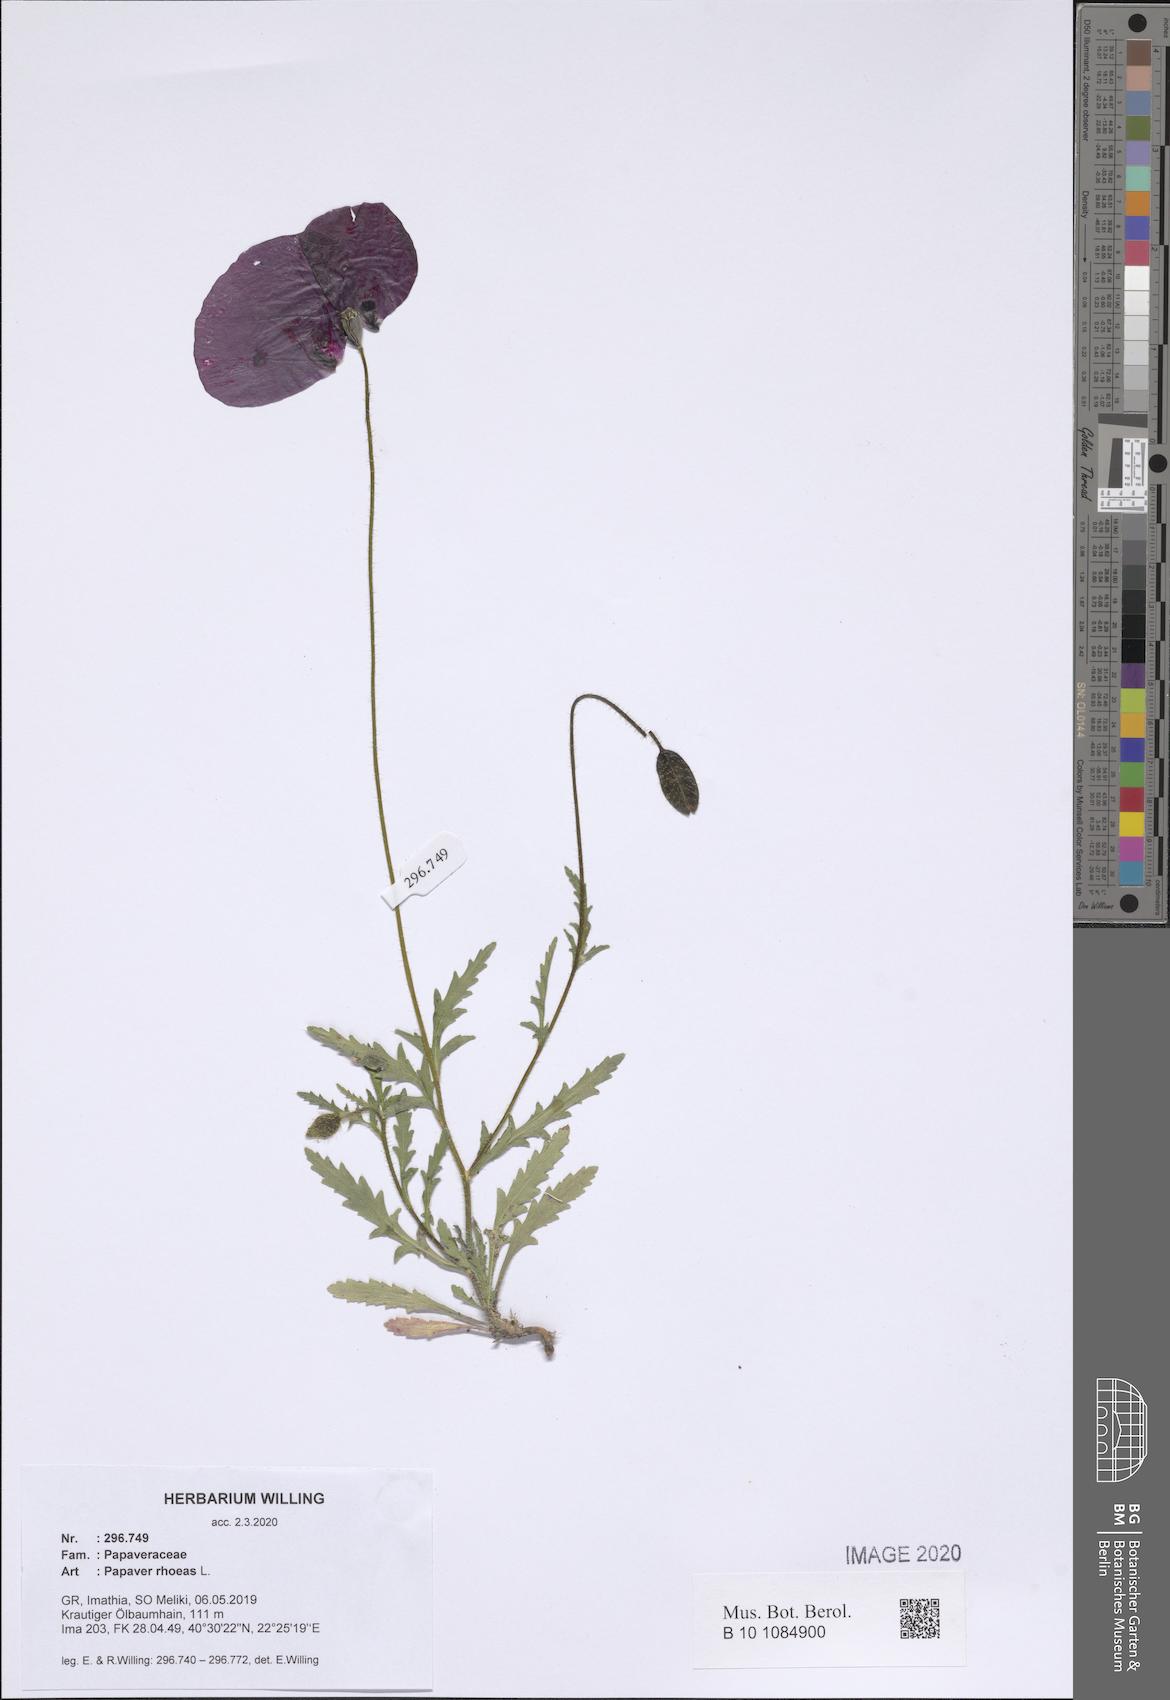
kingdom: Plantae
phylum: Tracheophyta
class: Magnoliopsida
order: Ranunculales
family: Papaveraceae
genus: Papaver
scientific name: Papaver rhoeas
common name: Corn poppy
